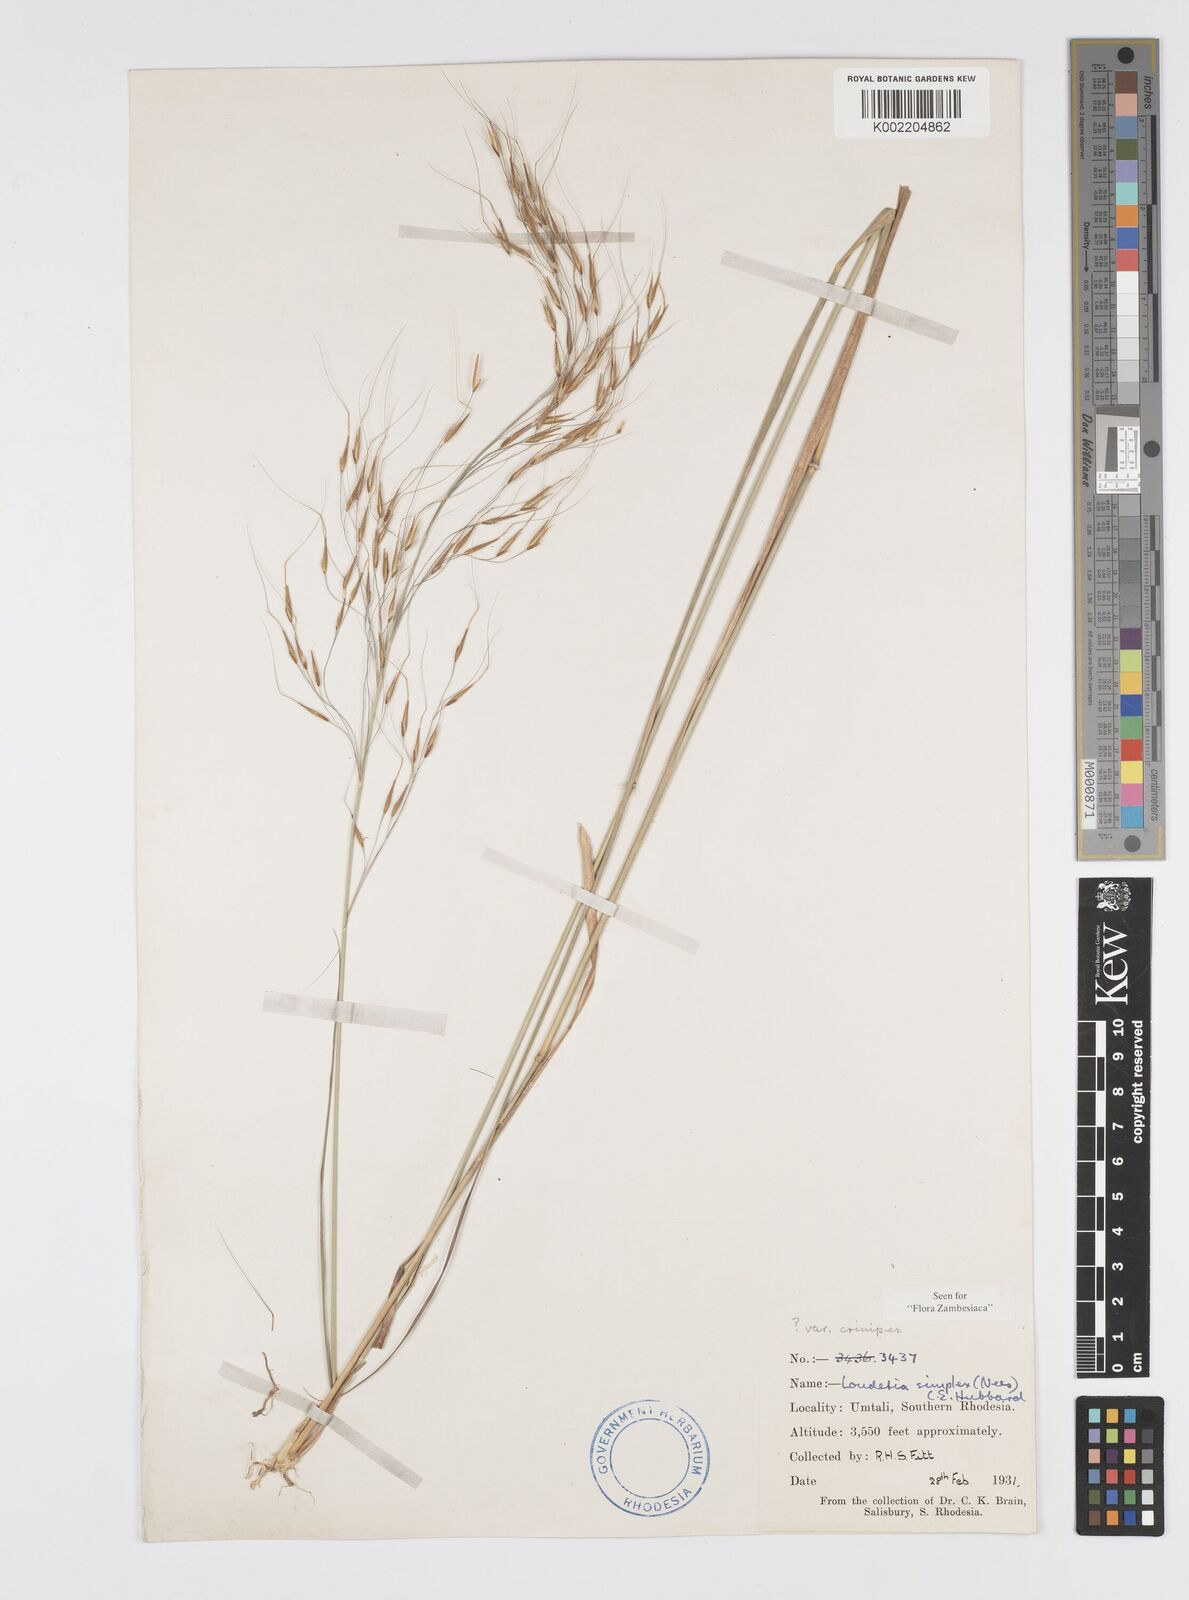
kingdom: Plantae
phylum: Tracheophyta
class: Liliopsida
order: Poales
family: Poaceae
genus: Loudetia
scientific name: Loudetia simplex
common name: Common russet grass
